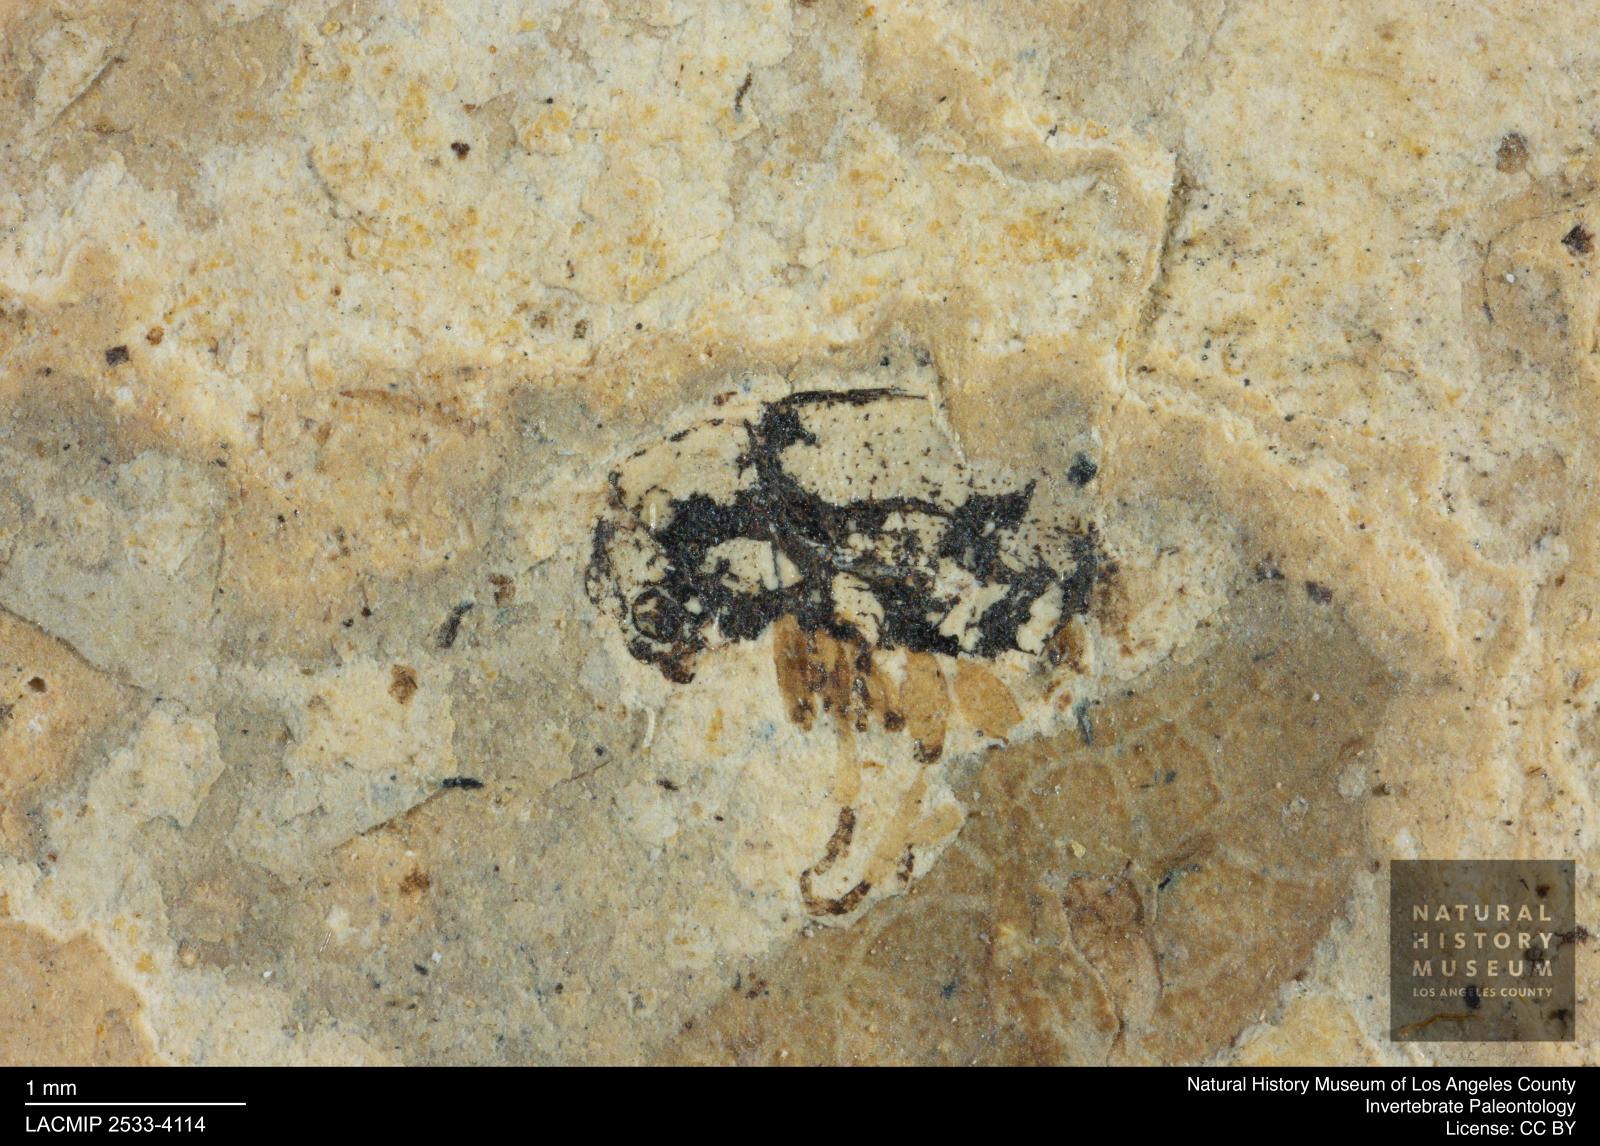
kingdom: Animalia
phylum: Arthropoda
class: Insecta
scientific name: Insecta
